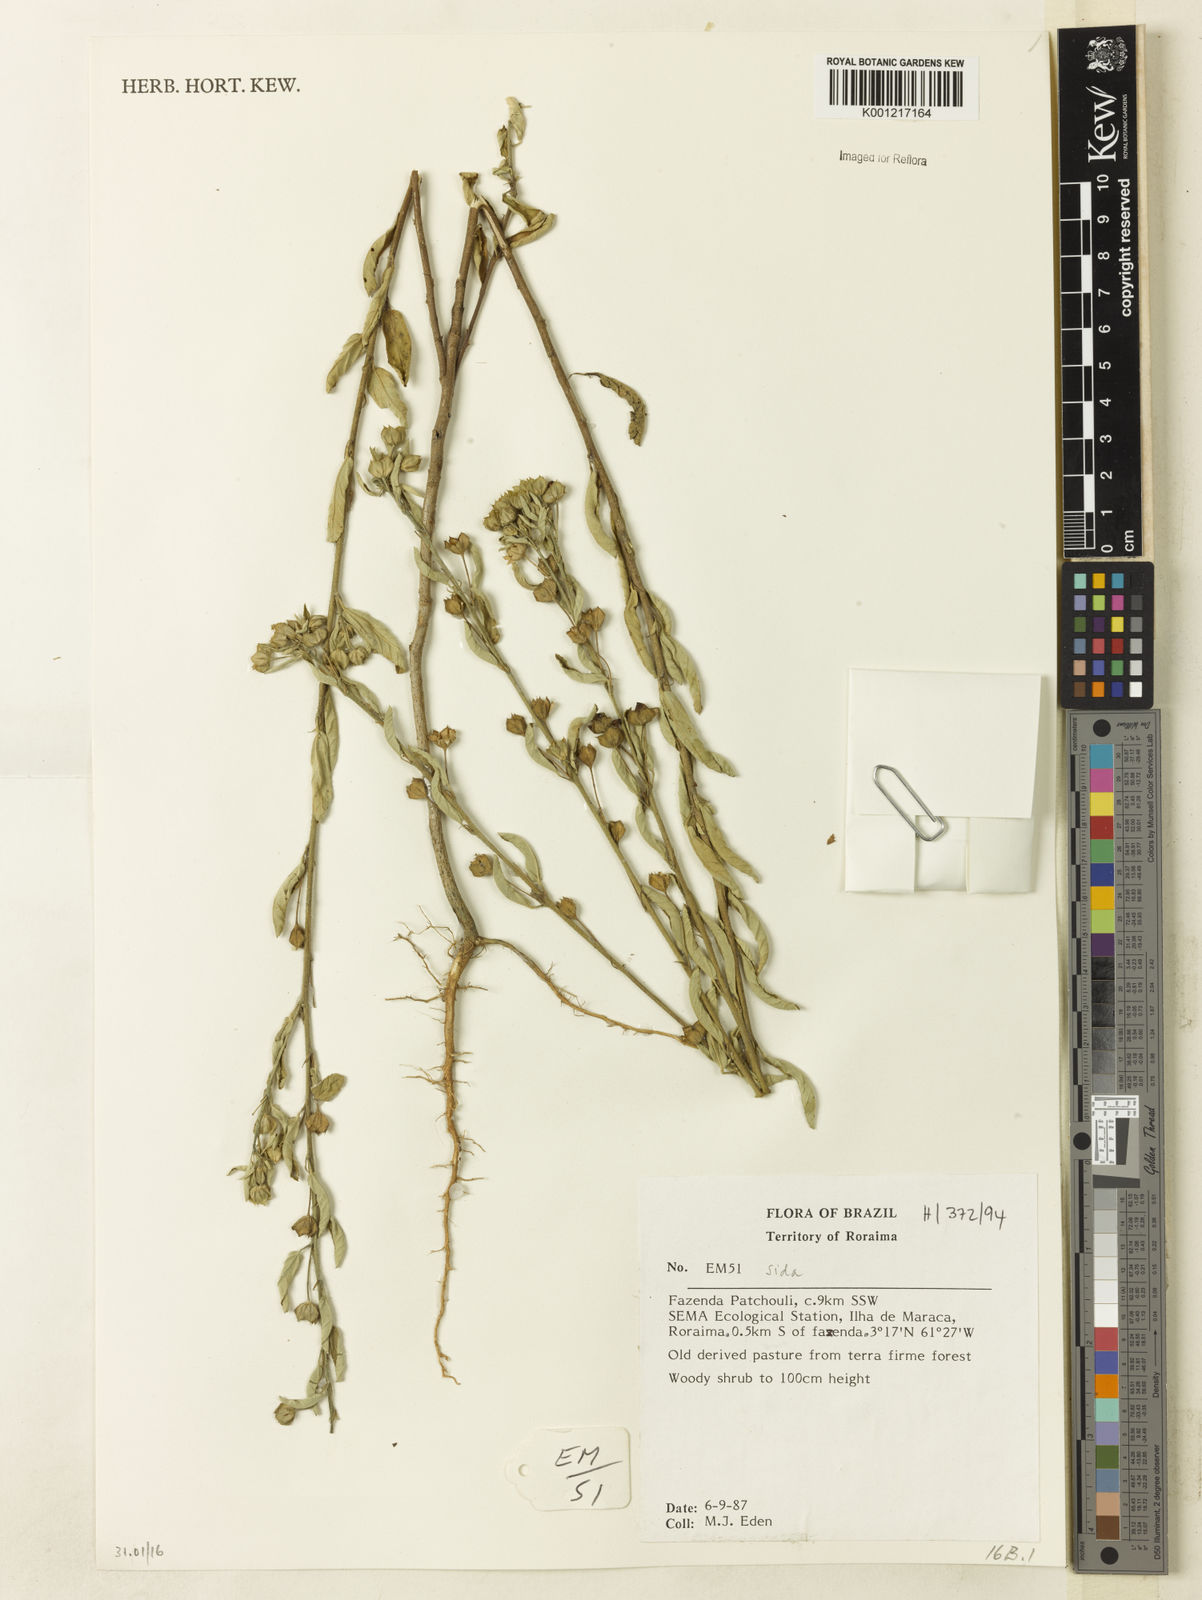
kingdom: Plantae
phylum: Tracheophyta
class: Magnoliopsida
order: Malvales
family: Malvaceae
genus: Sida
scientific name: Sida
